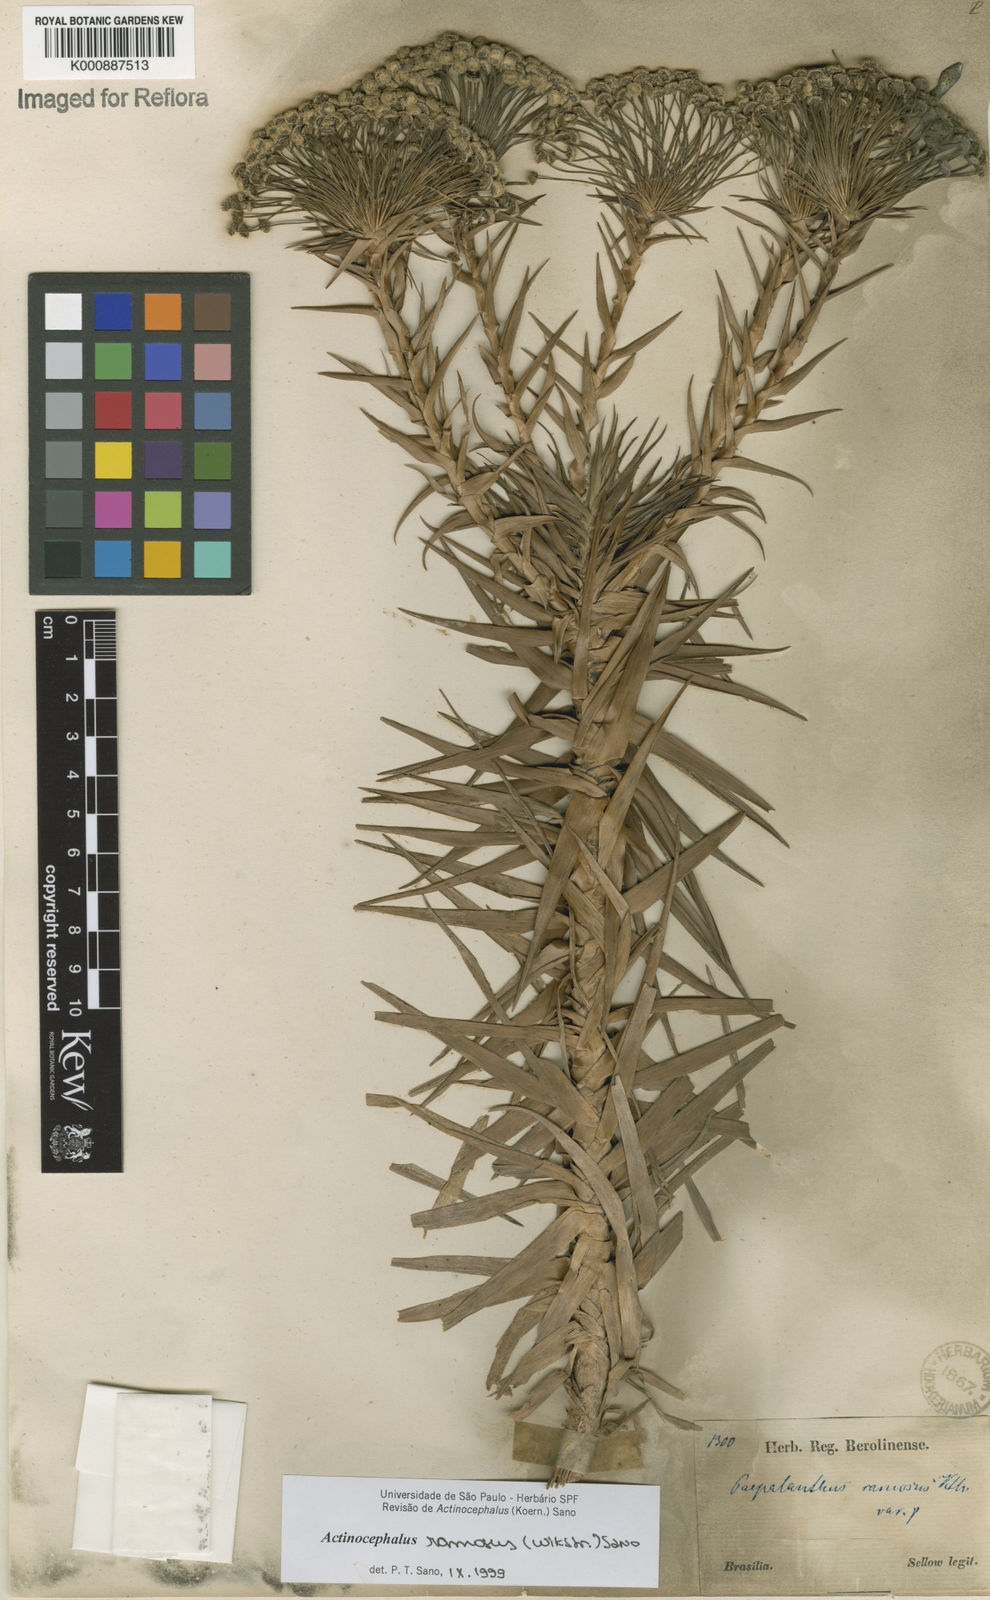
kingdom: Plantae
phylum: Tracheophyta
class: Liliopsida
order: Poales
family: Eriocaulaceae
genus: Paepalanthus
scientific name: Paepalanthus ramosus
